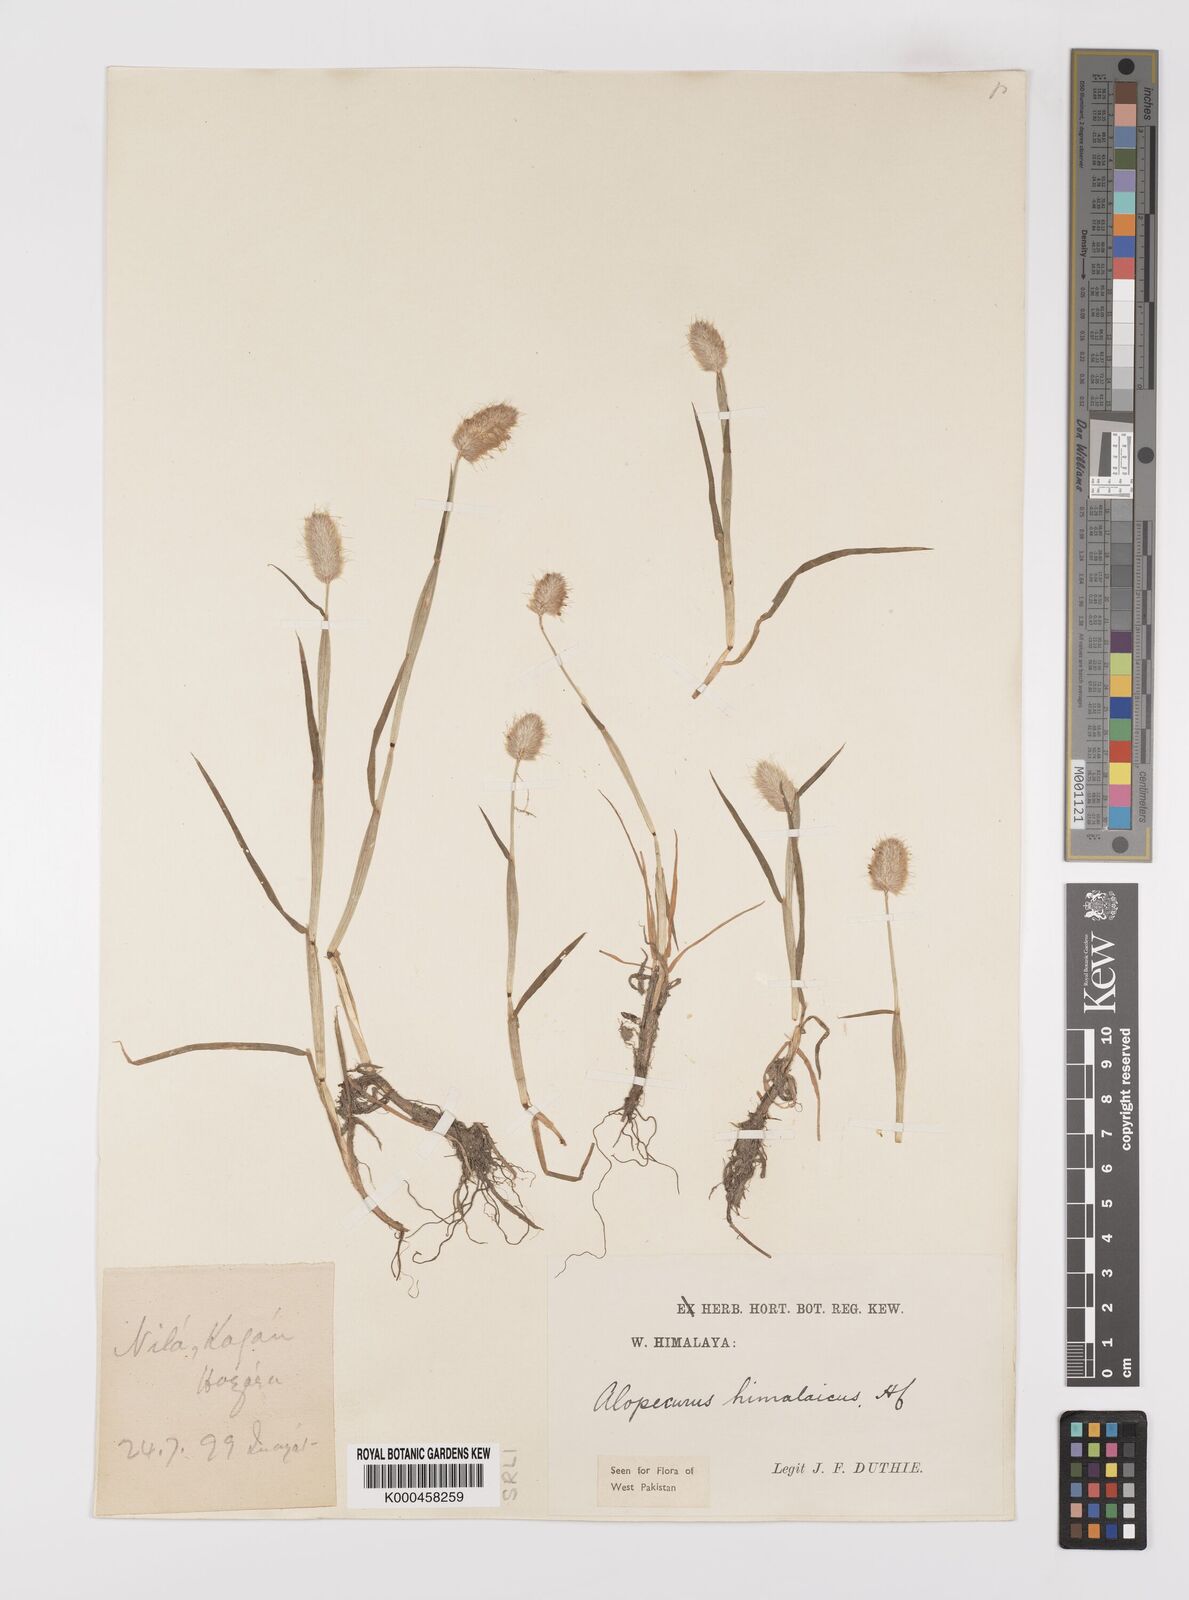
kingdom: Plantae
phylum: Tracheophyta
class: Liliopsida
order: Poales
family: Poaceae
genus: Alopecurus
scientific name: Alopecurus himalaicus
